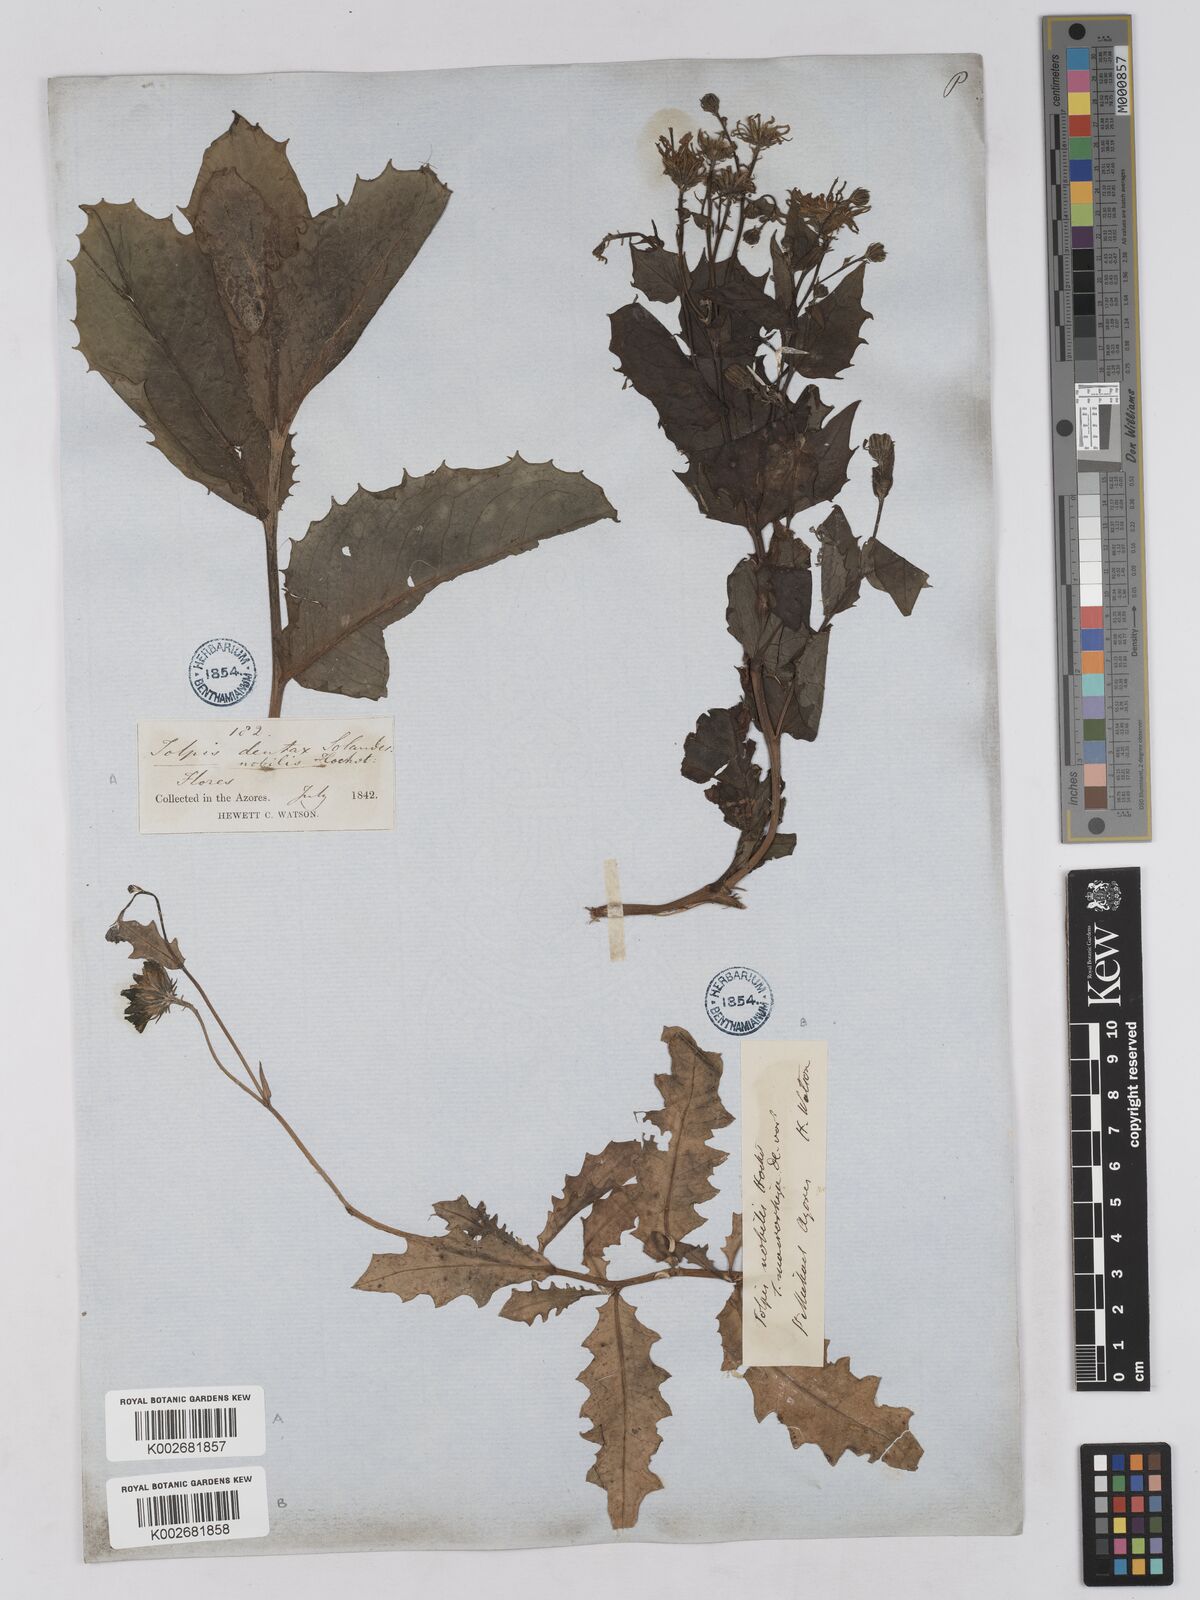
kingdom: Plantae
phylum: Tracheophyta
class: Magnoliopsida
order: Asterales
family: Asteraceae
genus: Tolpis
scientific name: Tolpis nobilis
